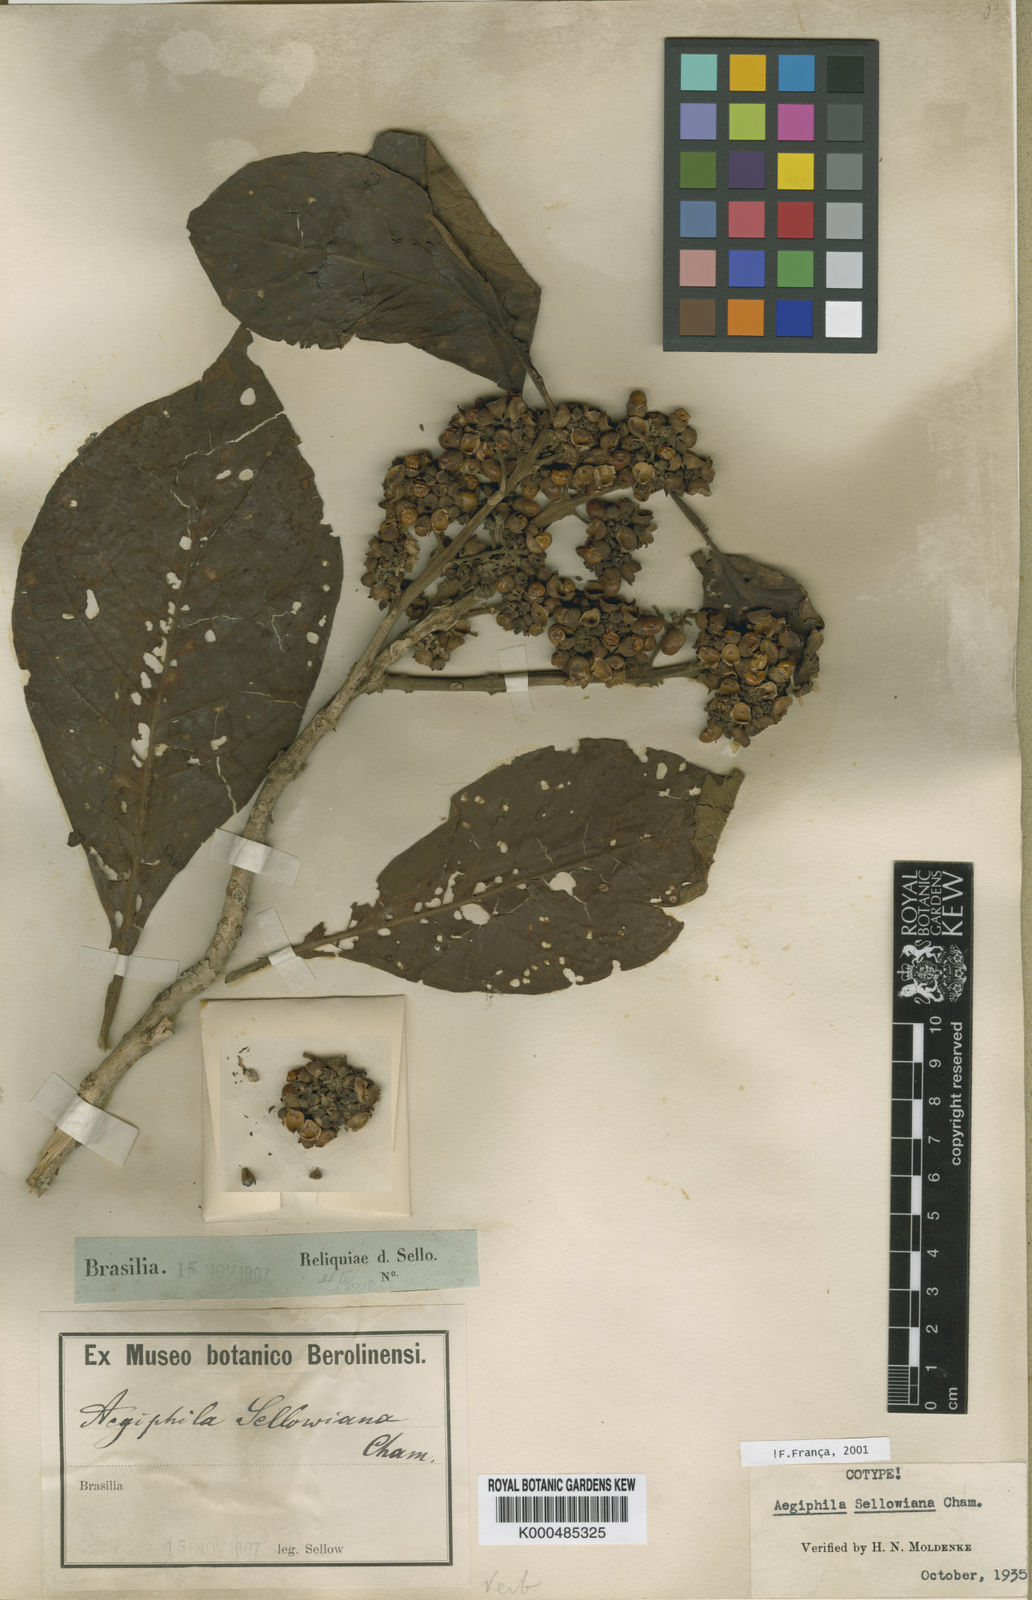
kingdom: Plantae
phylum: Tracheophyta
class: Magnoliopsida
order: Lamiales
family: Lamiaceae
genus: Aegiphila
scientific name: Aegiphila verticillata
